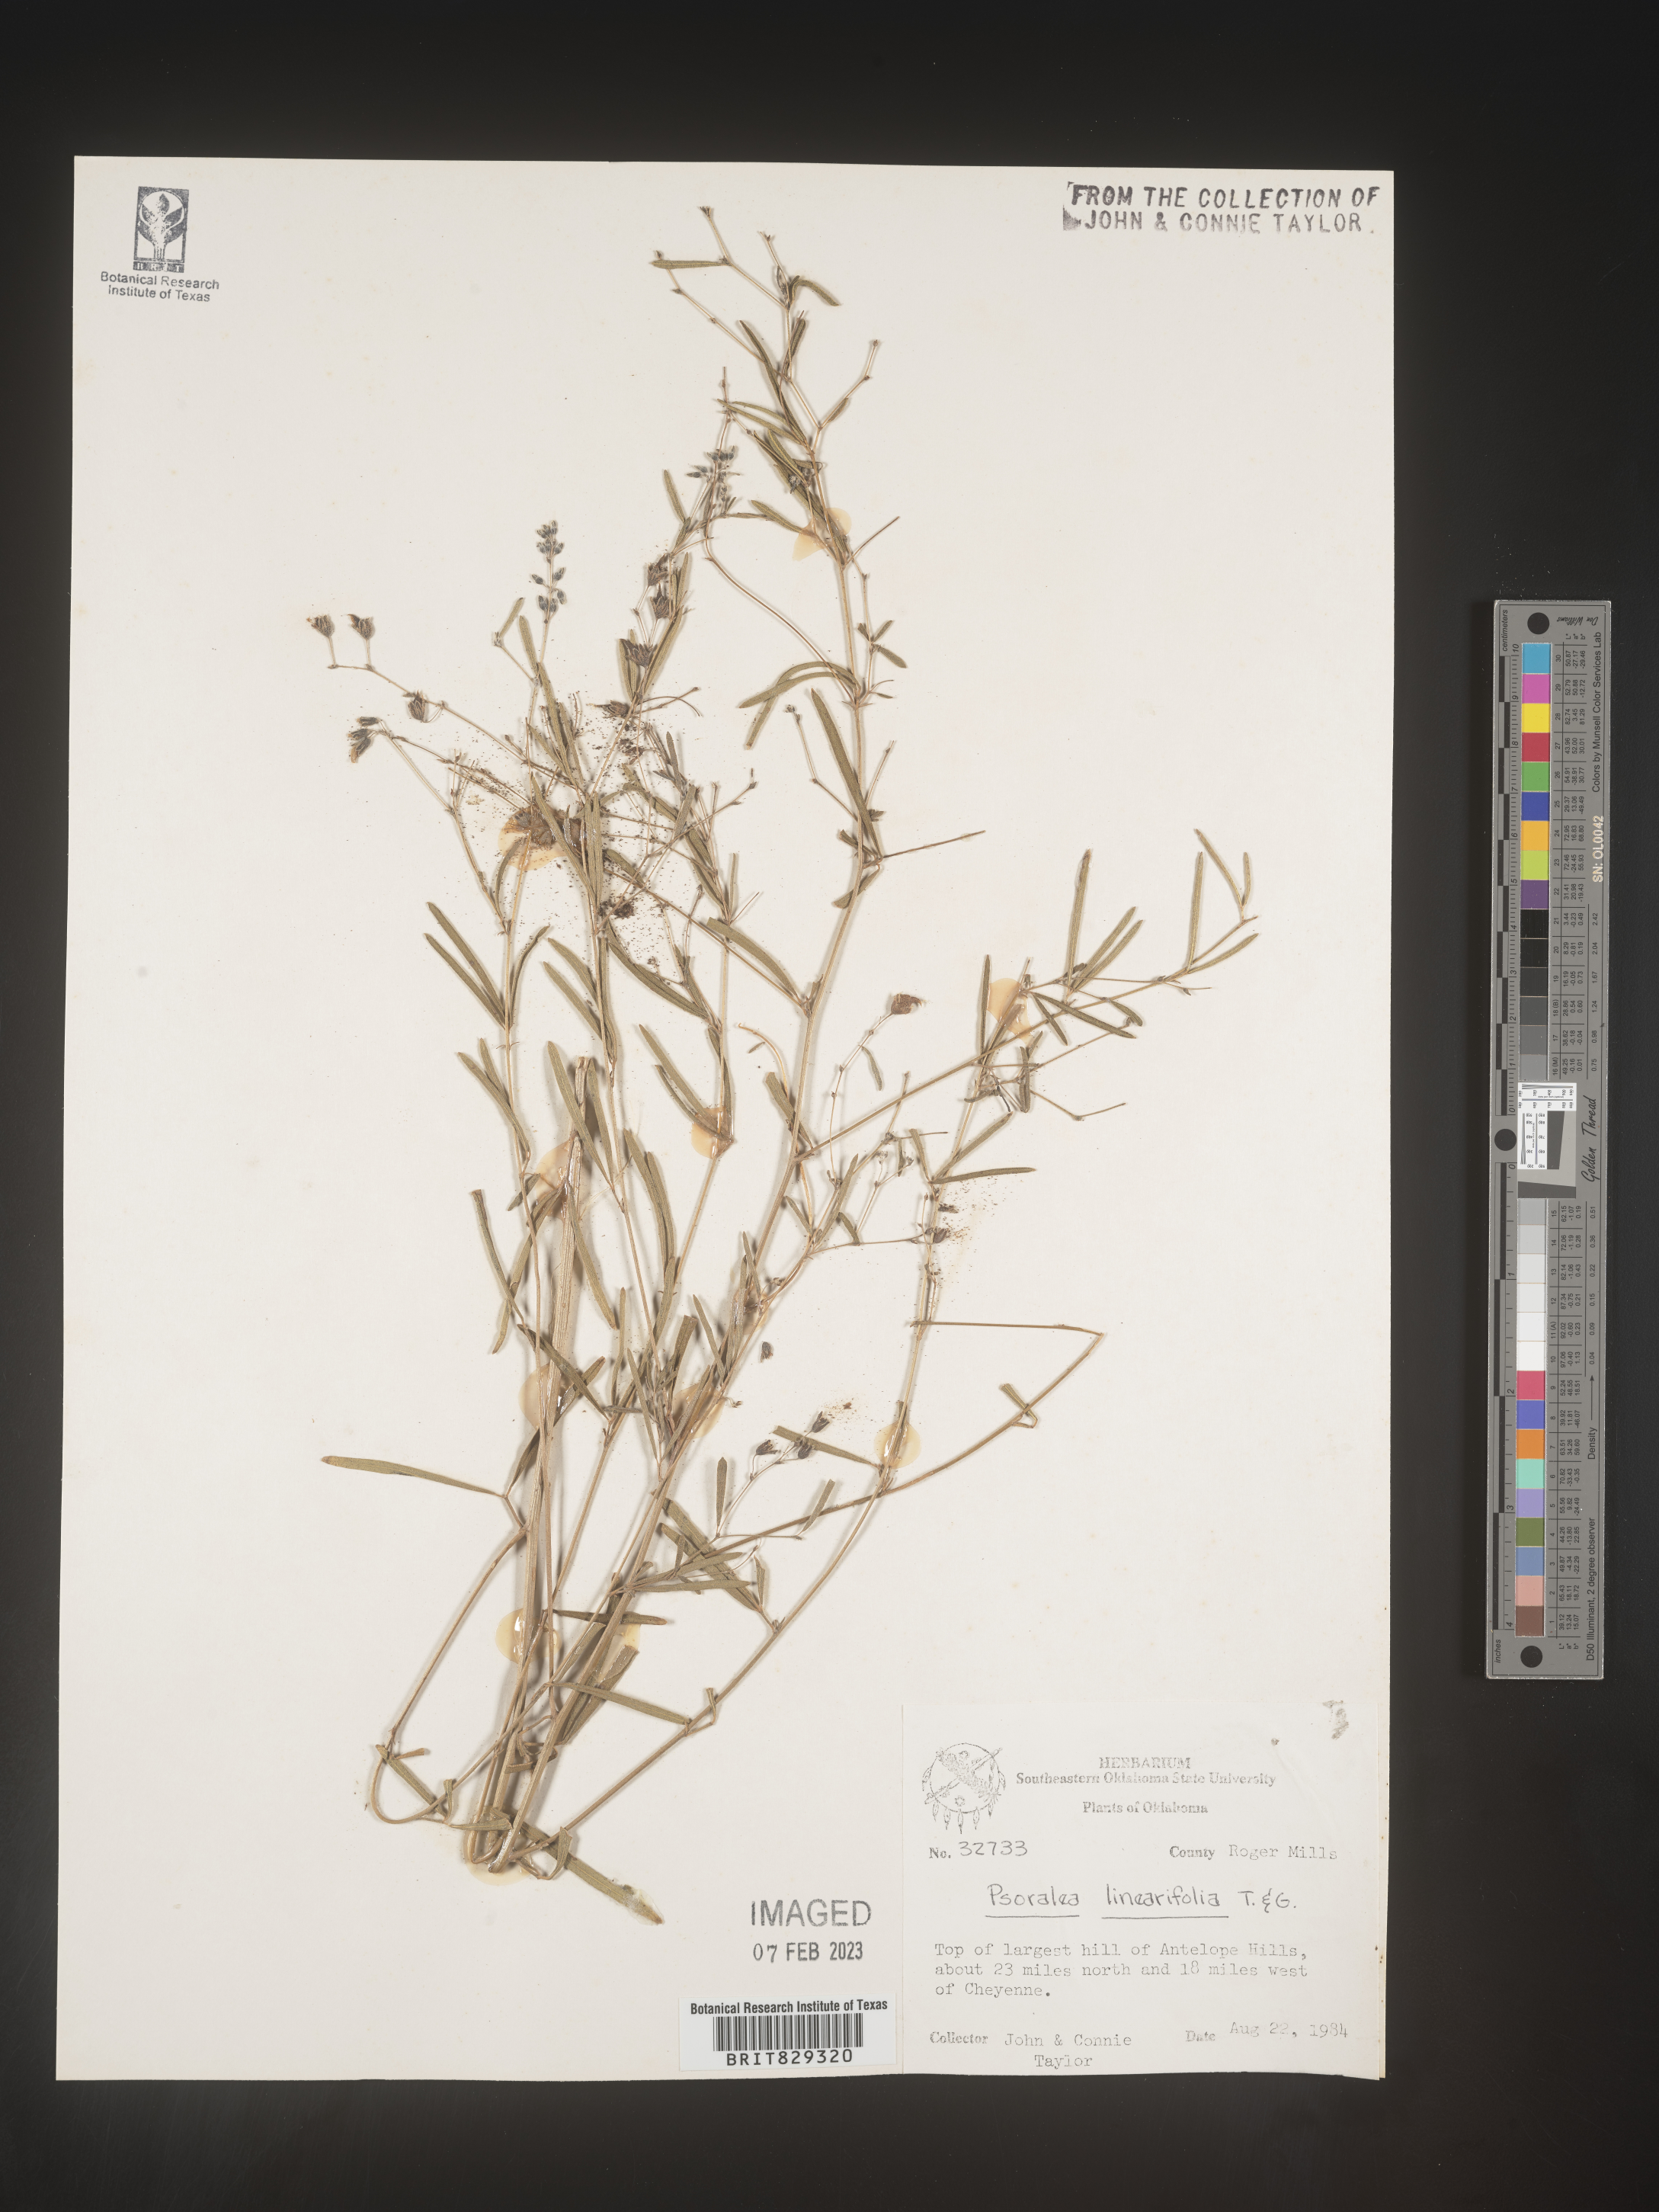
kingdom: Plantae
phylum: Tracheophyta
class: Magnoliopsida
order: Fabales
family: Fabaceae
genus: Pediomelum
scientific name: Pediomelum linearifolium
